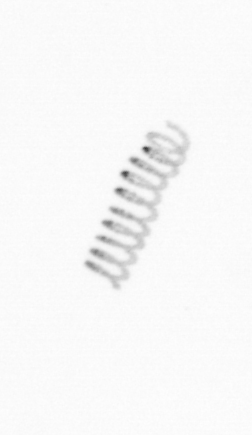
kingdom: Chromista
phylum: Ochrophyta
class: Bacillariophyceae
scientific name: Bacillariophyceae
